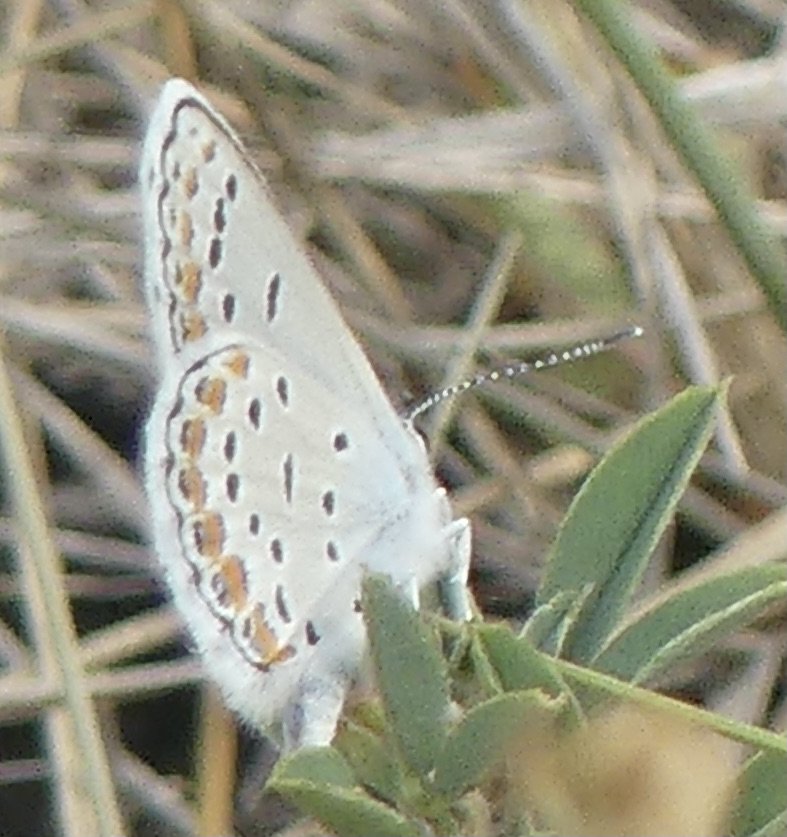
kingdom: Animalia
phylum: Arthropoda
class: Insecta
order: Lepidoptera
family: Lycaenidae
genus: Lycaeides
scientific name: Lycaeides melissa
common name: Melissa Blue
